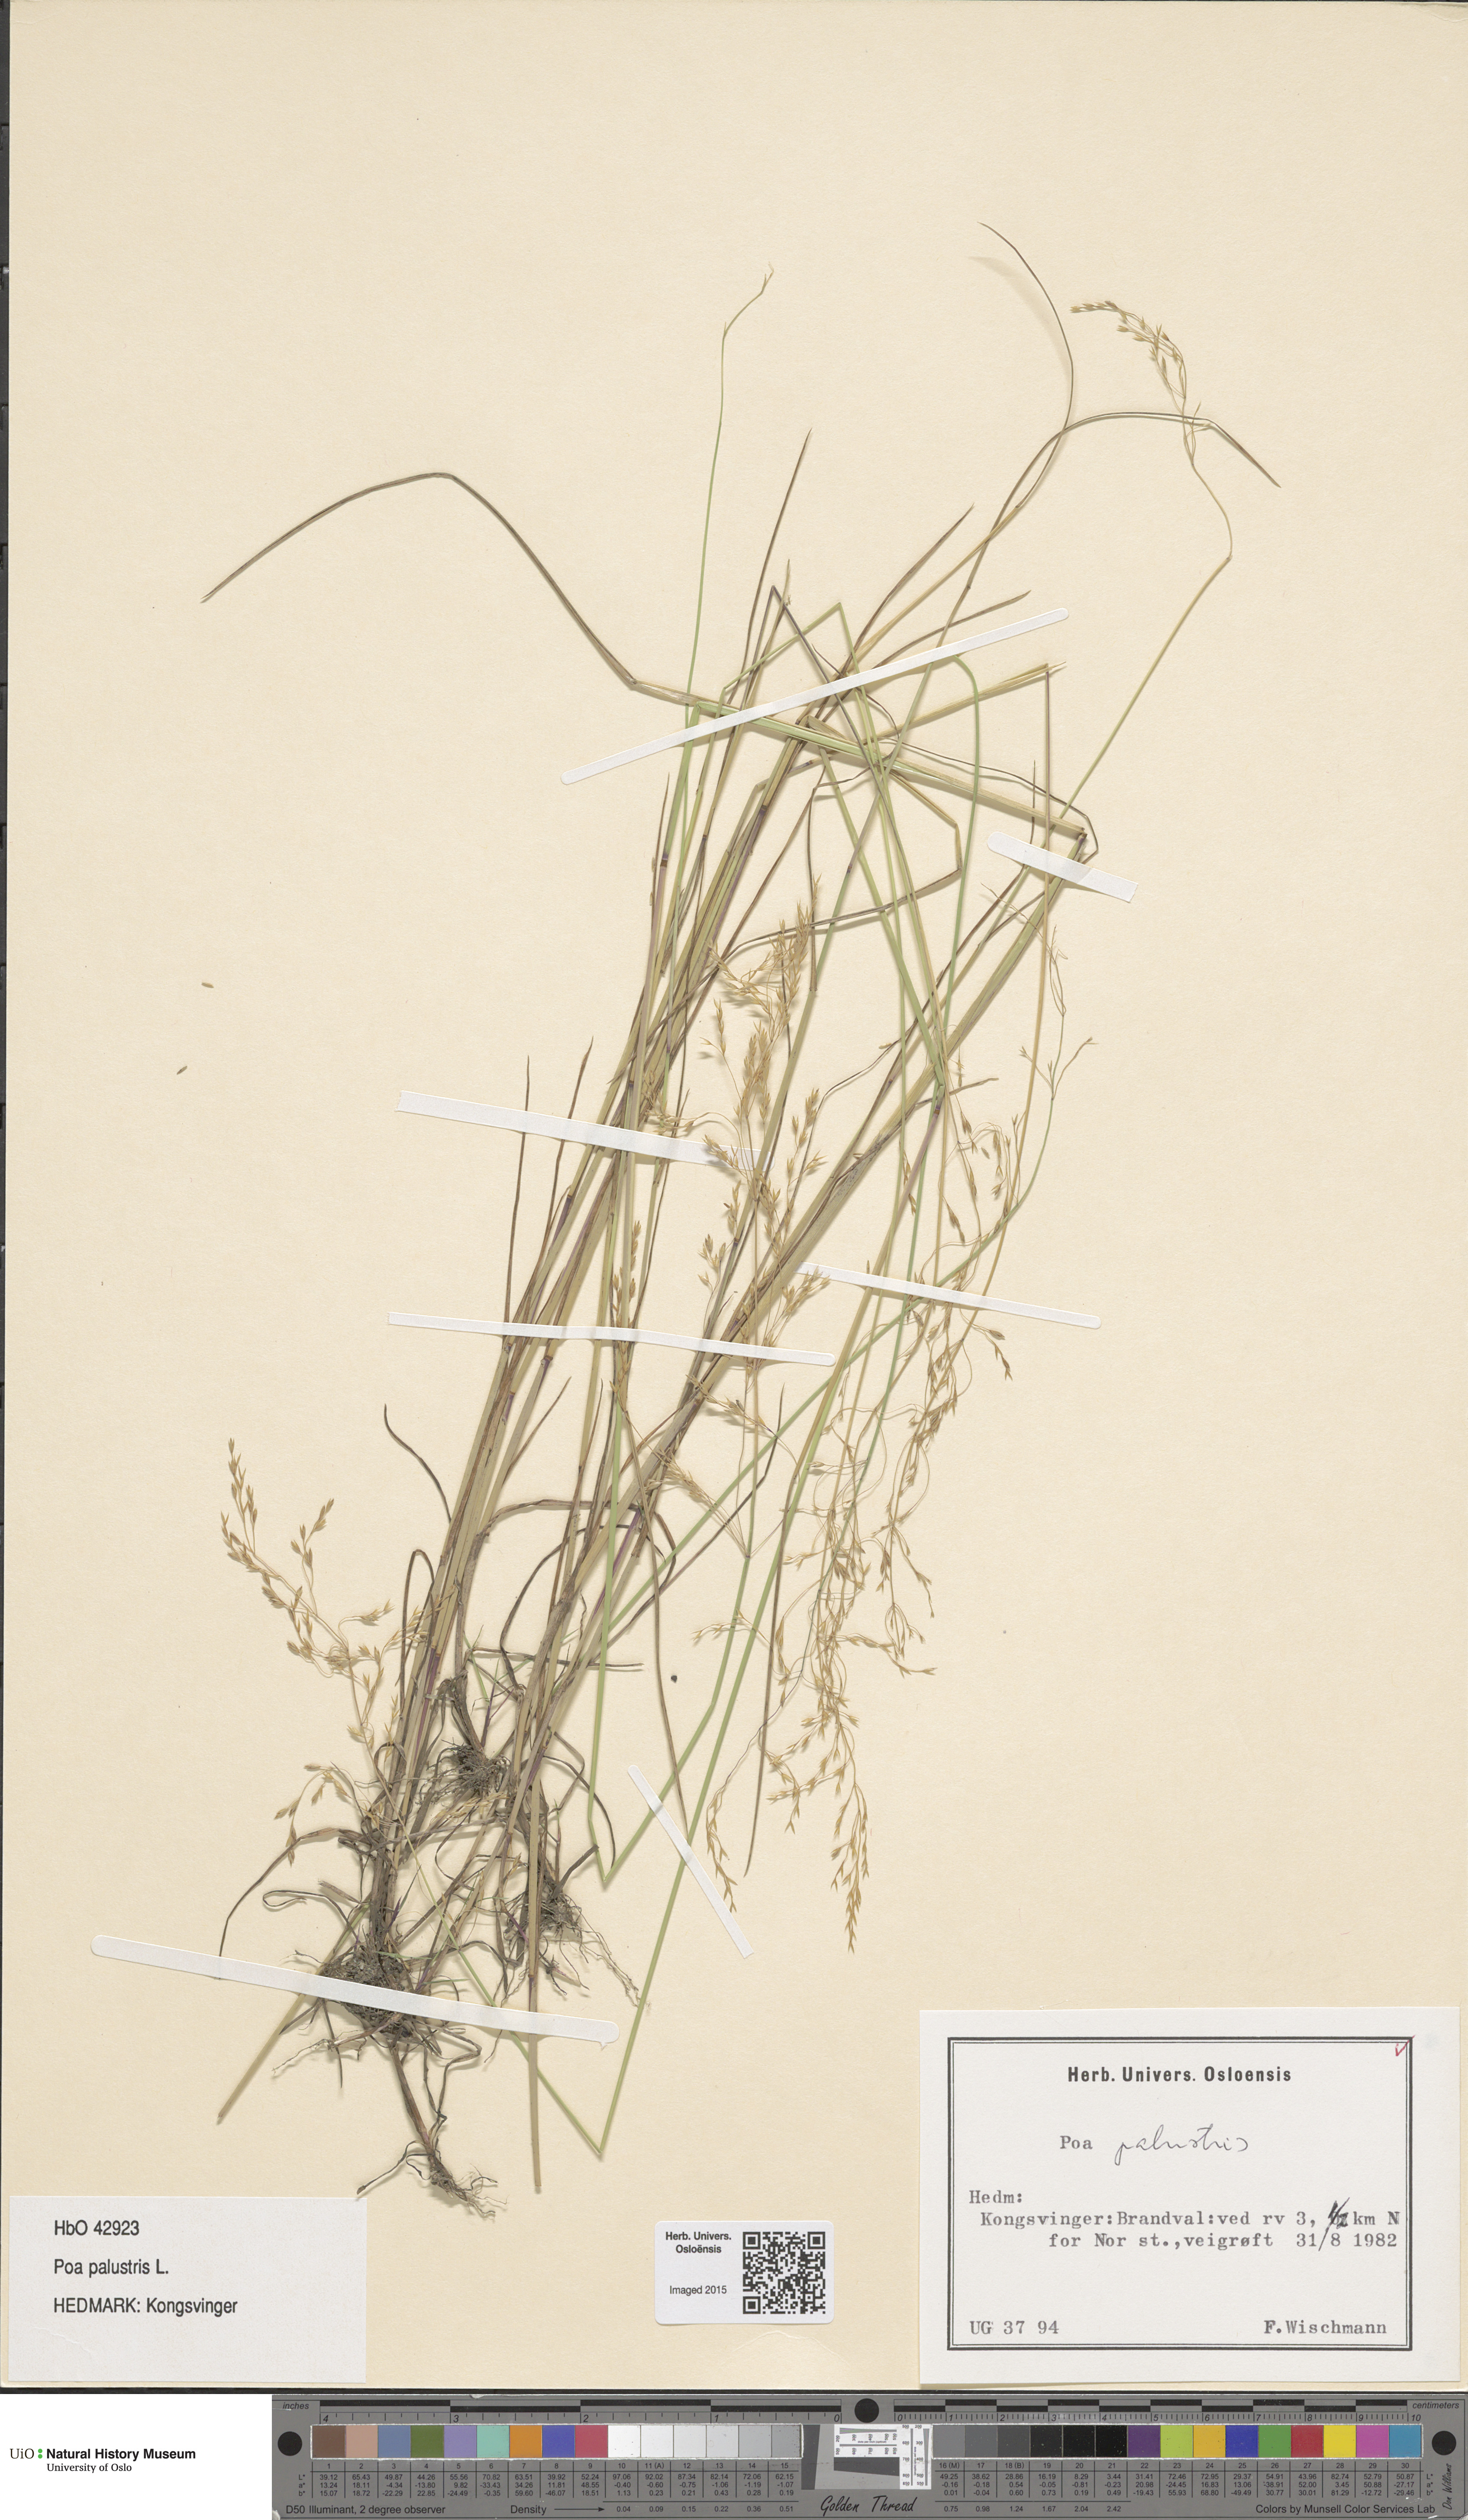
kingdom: Plantae
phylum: Tracheophyta
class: Liliopsida
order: Poales
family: Poaceae
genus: Poa
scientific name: Poa palustris
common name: Swamp meadow-grass
